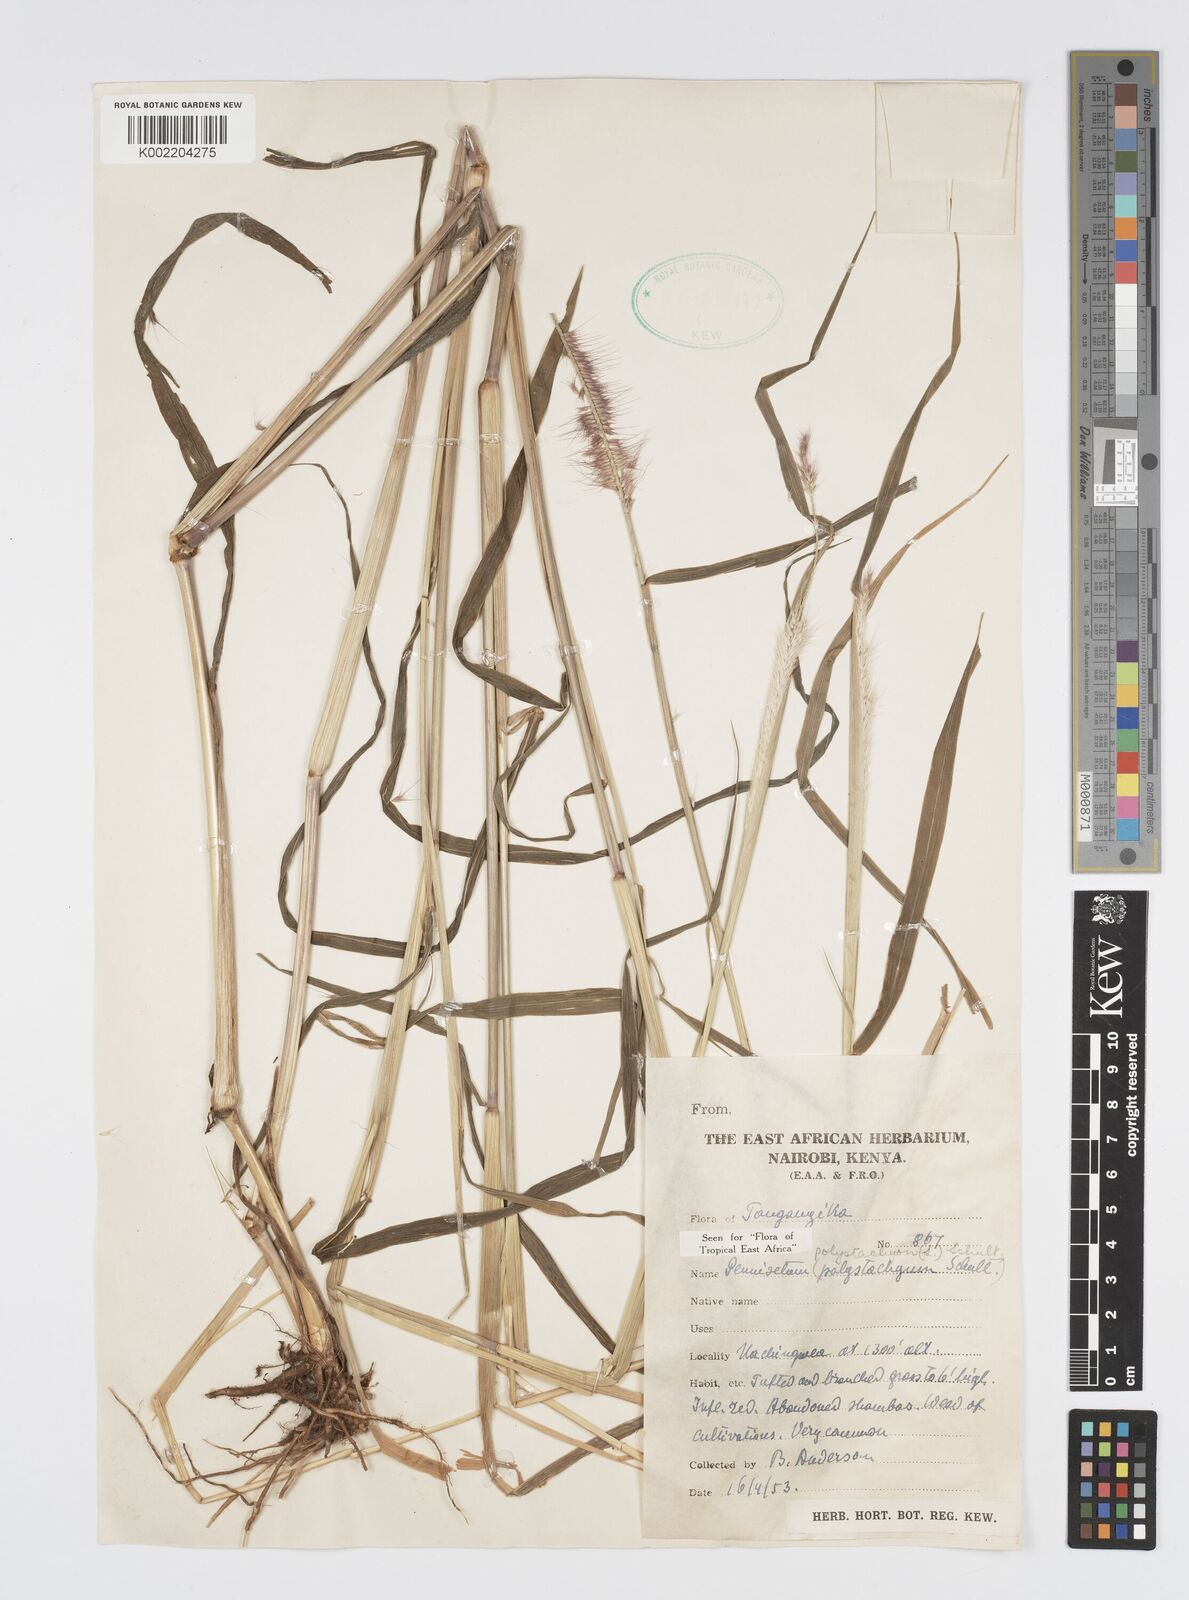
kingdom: Plantae
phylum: Tracheophyta
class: Liliopsida
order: Poales
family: Poaceae
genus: Setaria
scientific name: Setaria parviflora
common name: Knotroot bristle-grass
